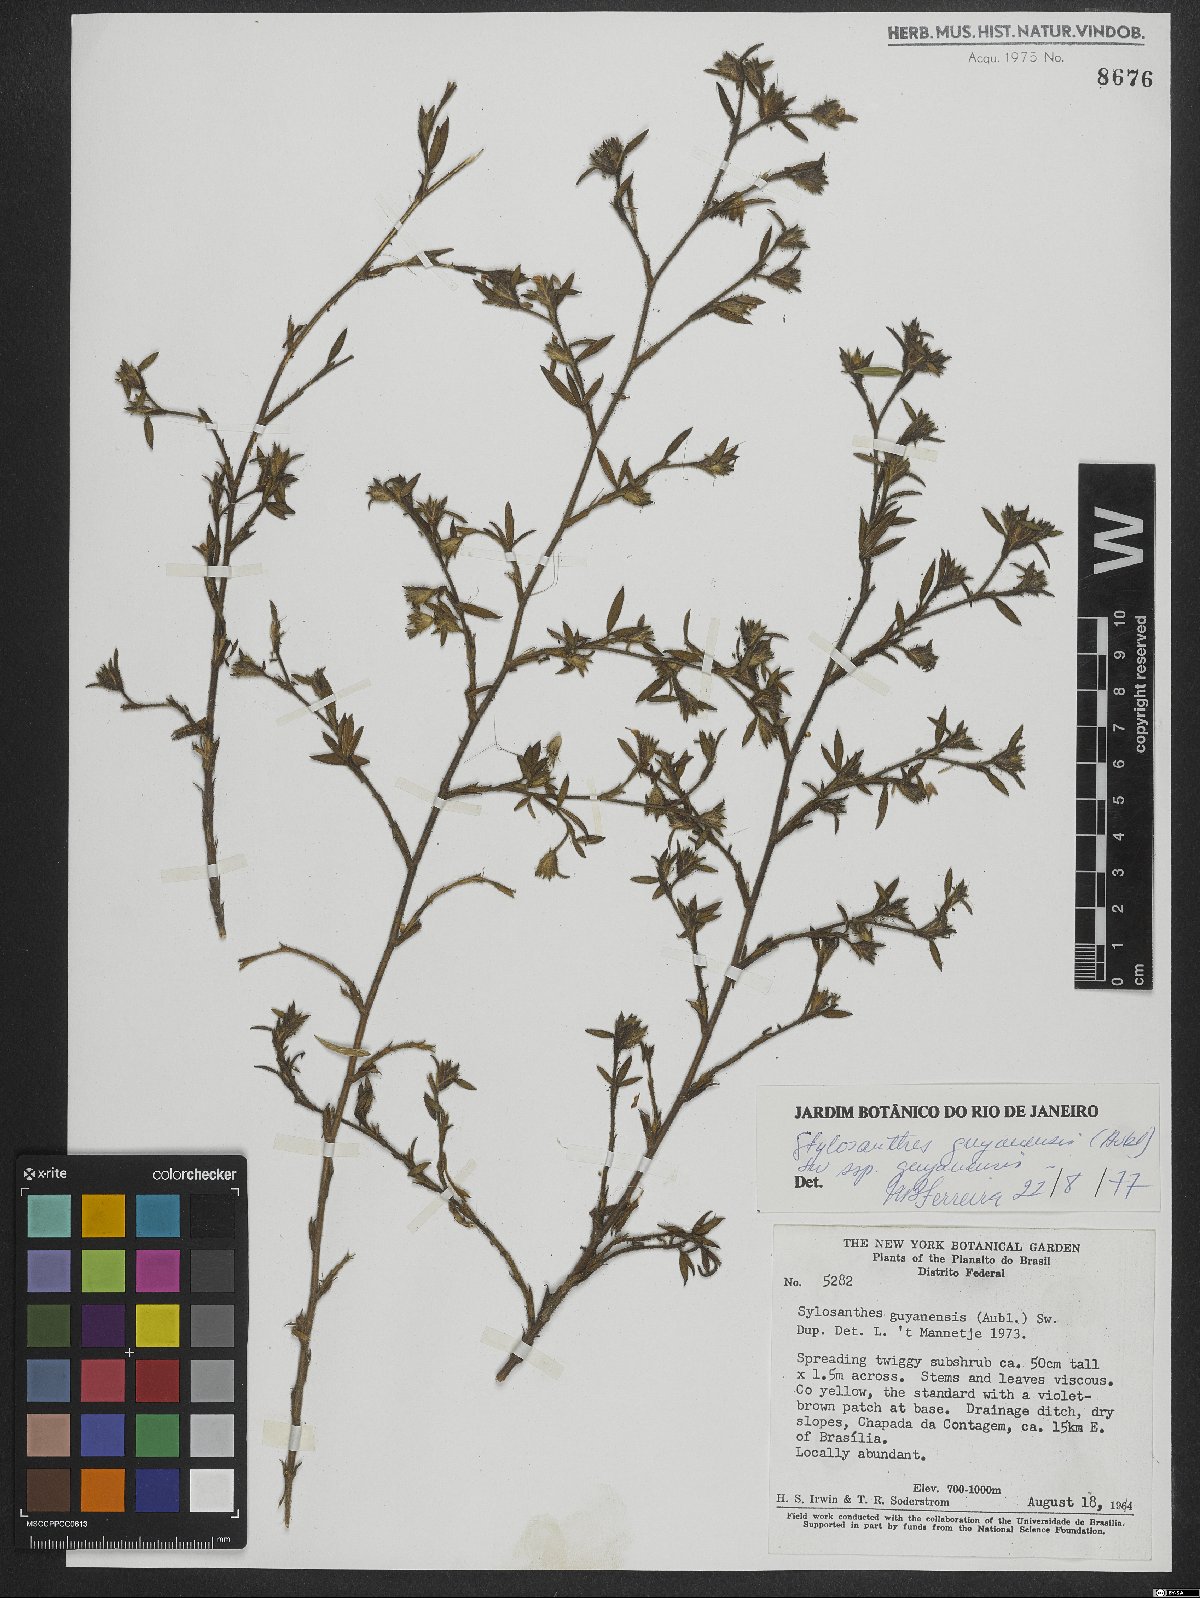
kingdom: Plantae
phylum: Tracheophyta
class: Magnoliopsida
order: Fabales
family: Fabaceae
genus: Stylosanthes
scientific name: Stylosanthes guianensis
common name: Pencil flower
